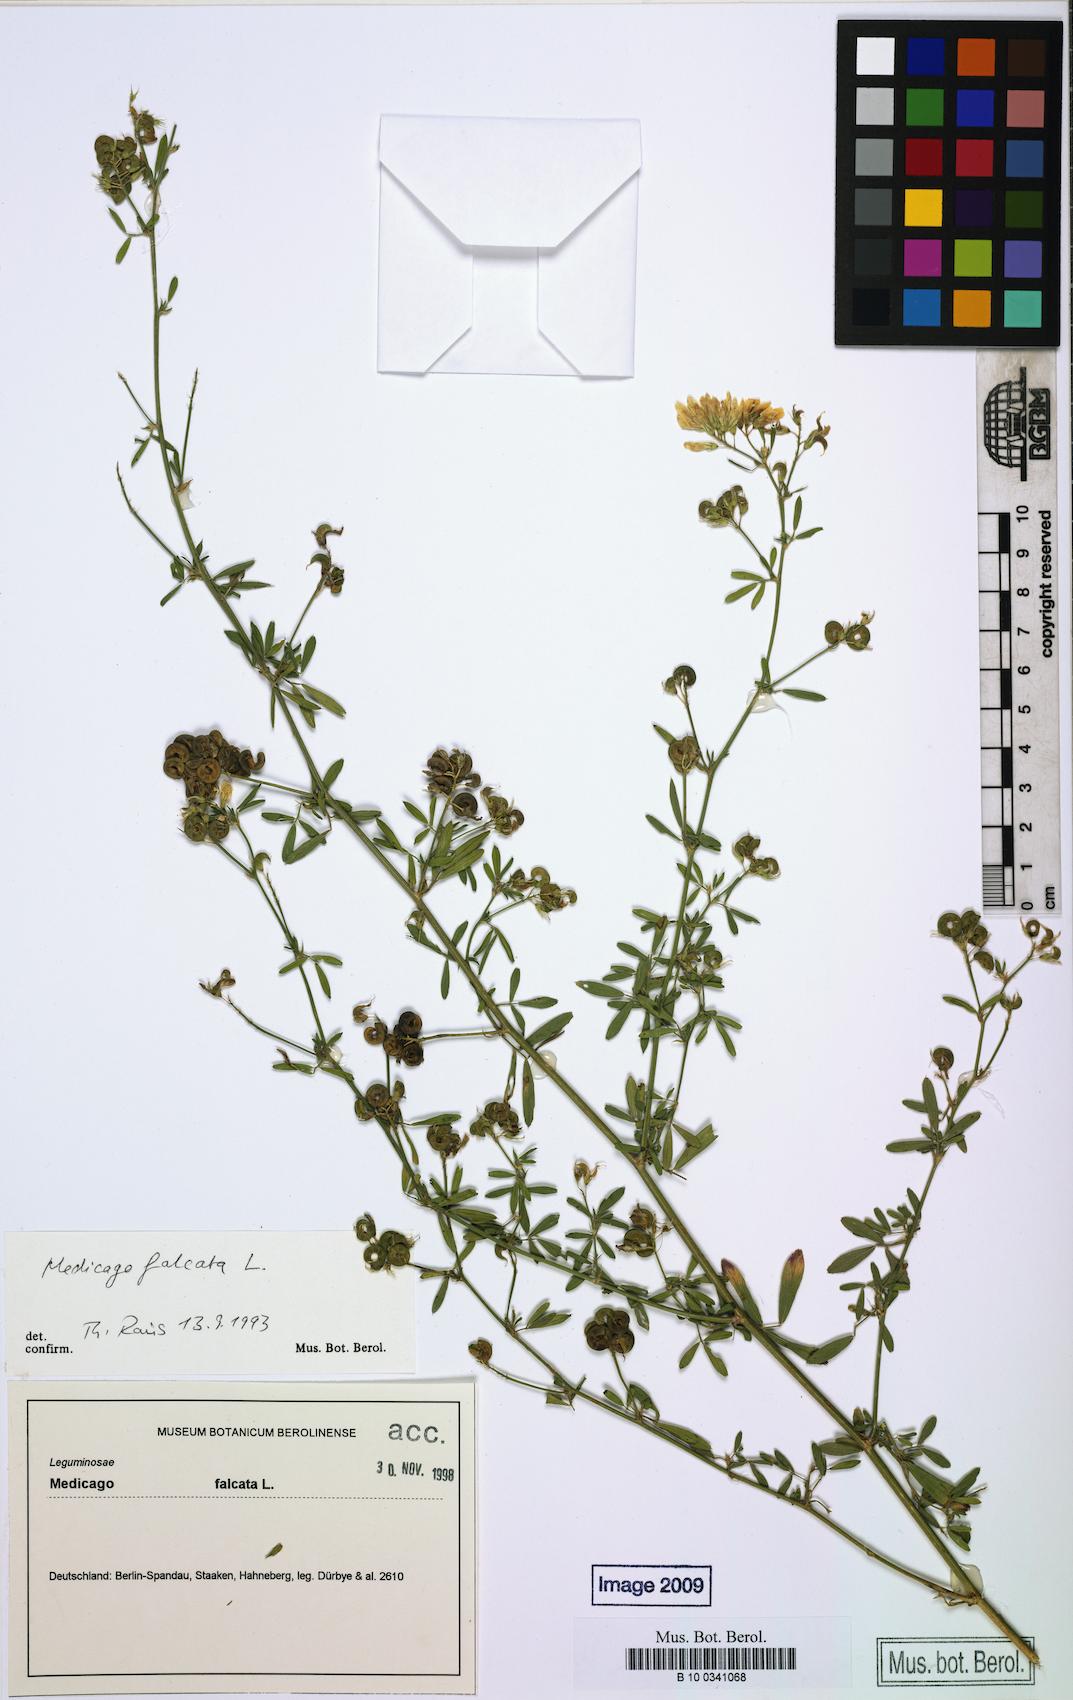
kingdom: Plantae
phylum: Tracheophyta
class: Magnoliopsida
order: Fabales
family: Fabaceae
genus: Medicago
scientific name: Medicago varia
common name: Sand lucerne
